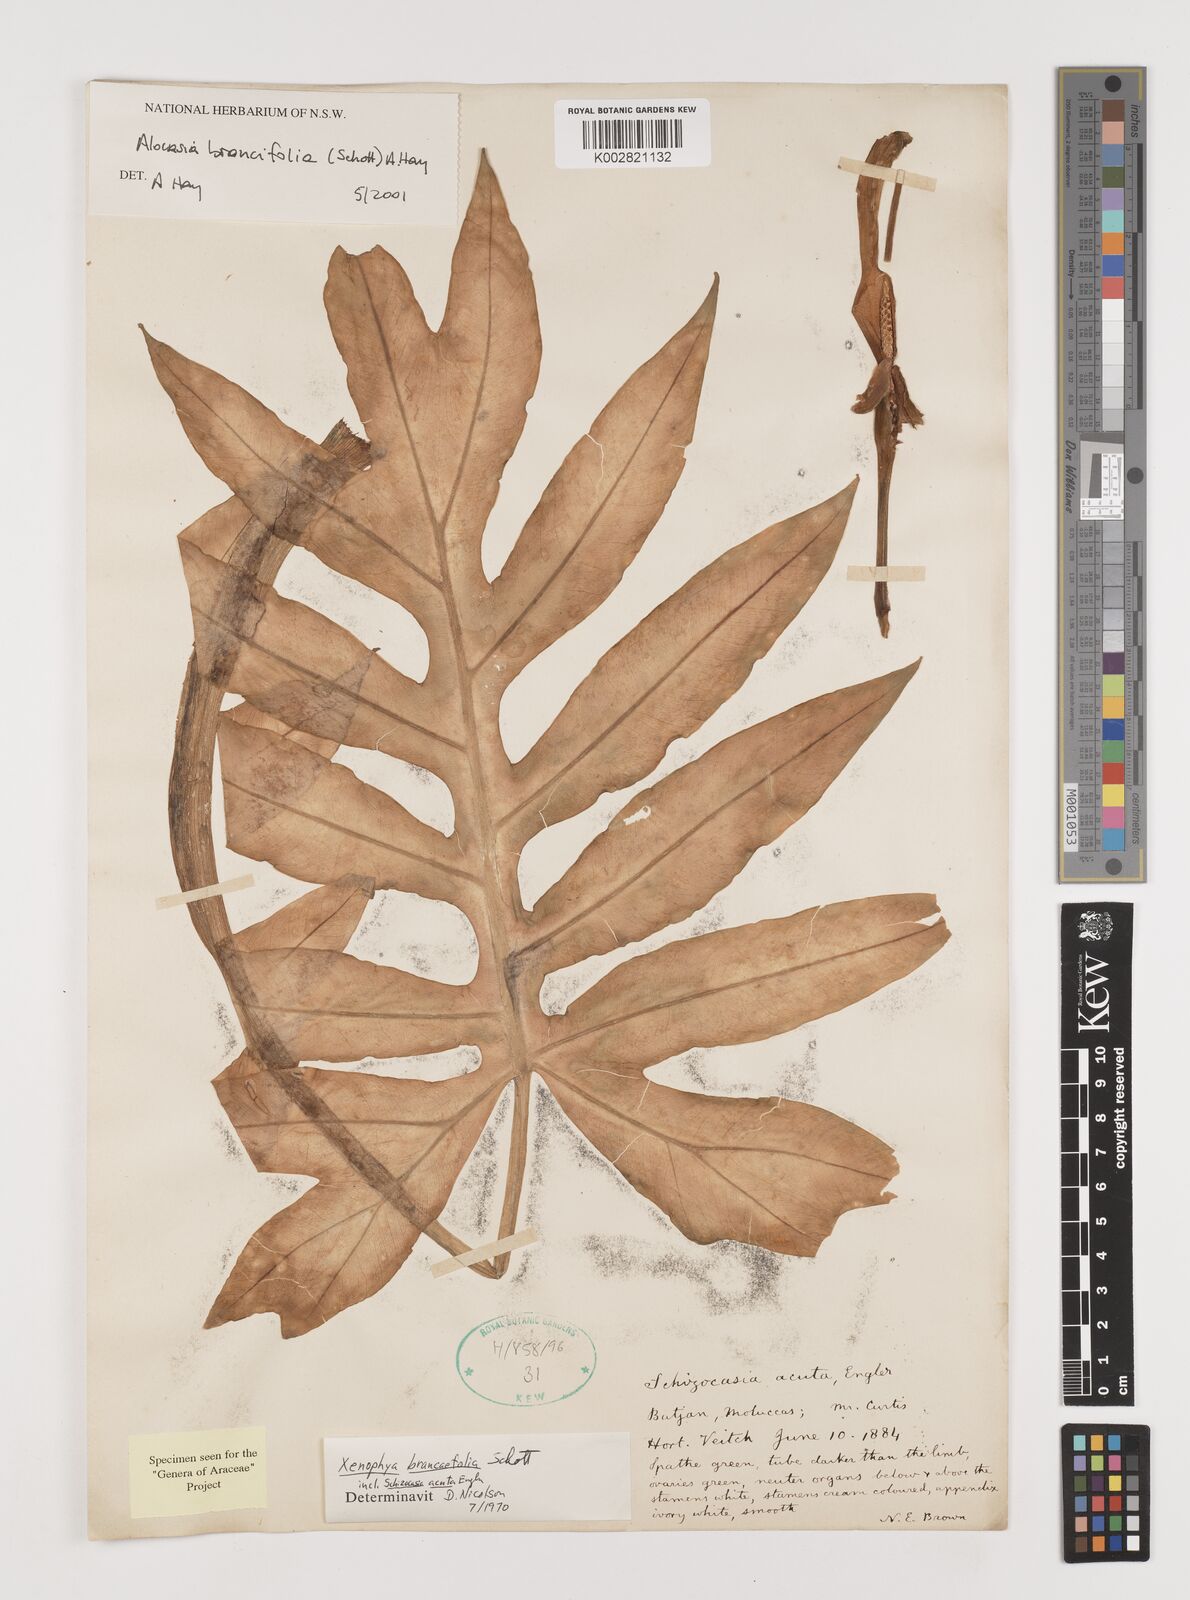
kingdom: Plantae
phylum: Tracheophyta
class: Liliopsida
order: Alismatales
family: Araceae
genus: Alocasia
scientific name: Alocasia brancifolia
